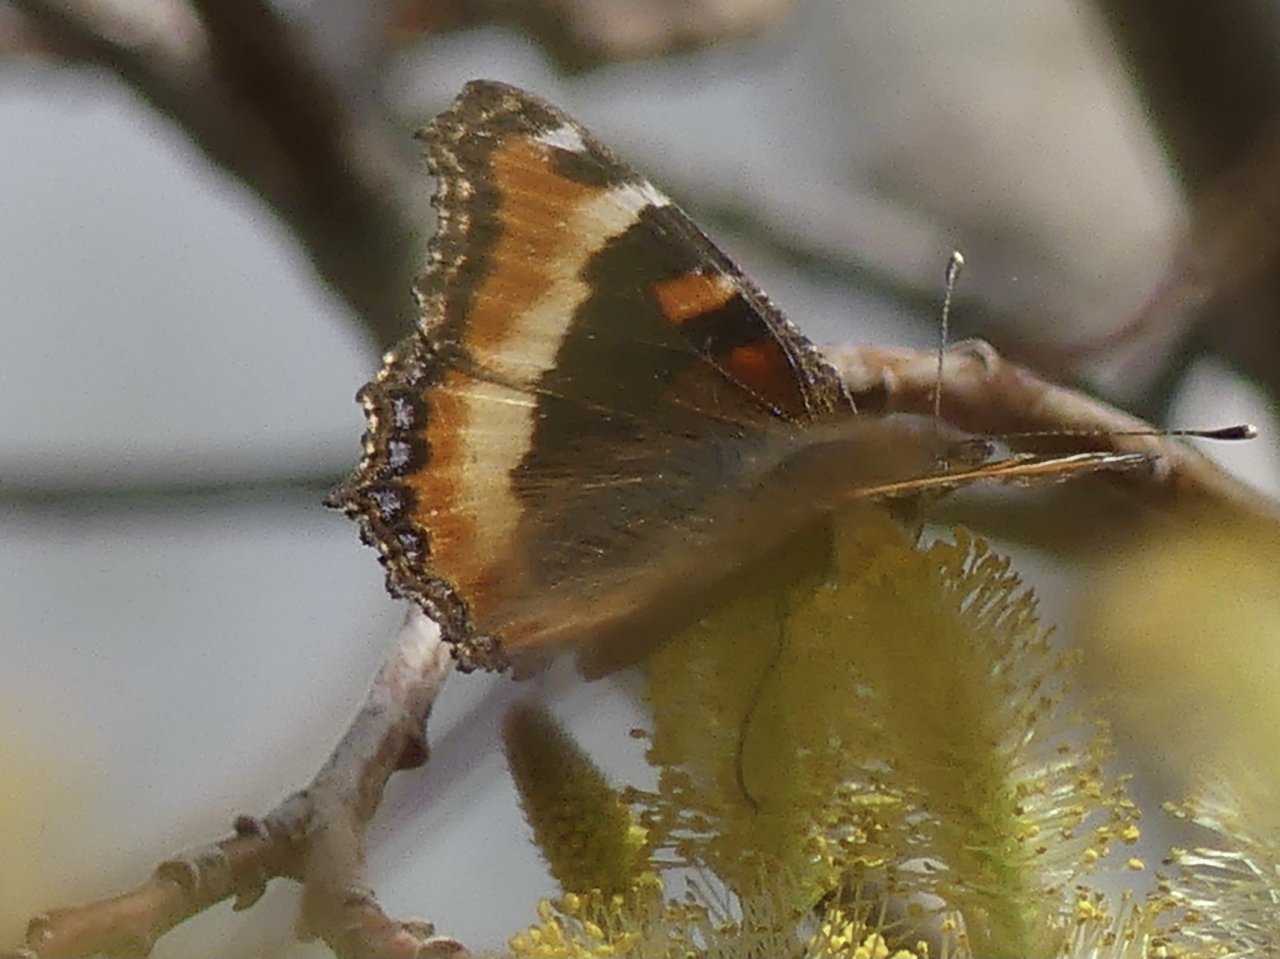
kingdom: Animalia
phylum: Arthropoda
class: Insecta
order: Lepidoptera
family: Nymphalidae
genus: Aglais
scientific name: Aglais milberti
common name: Milbert's Tortoiseshell
